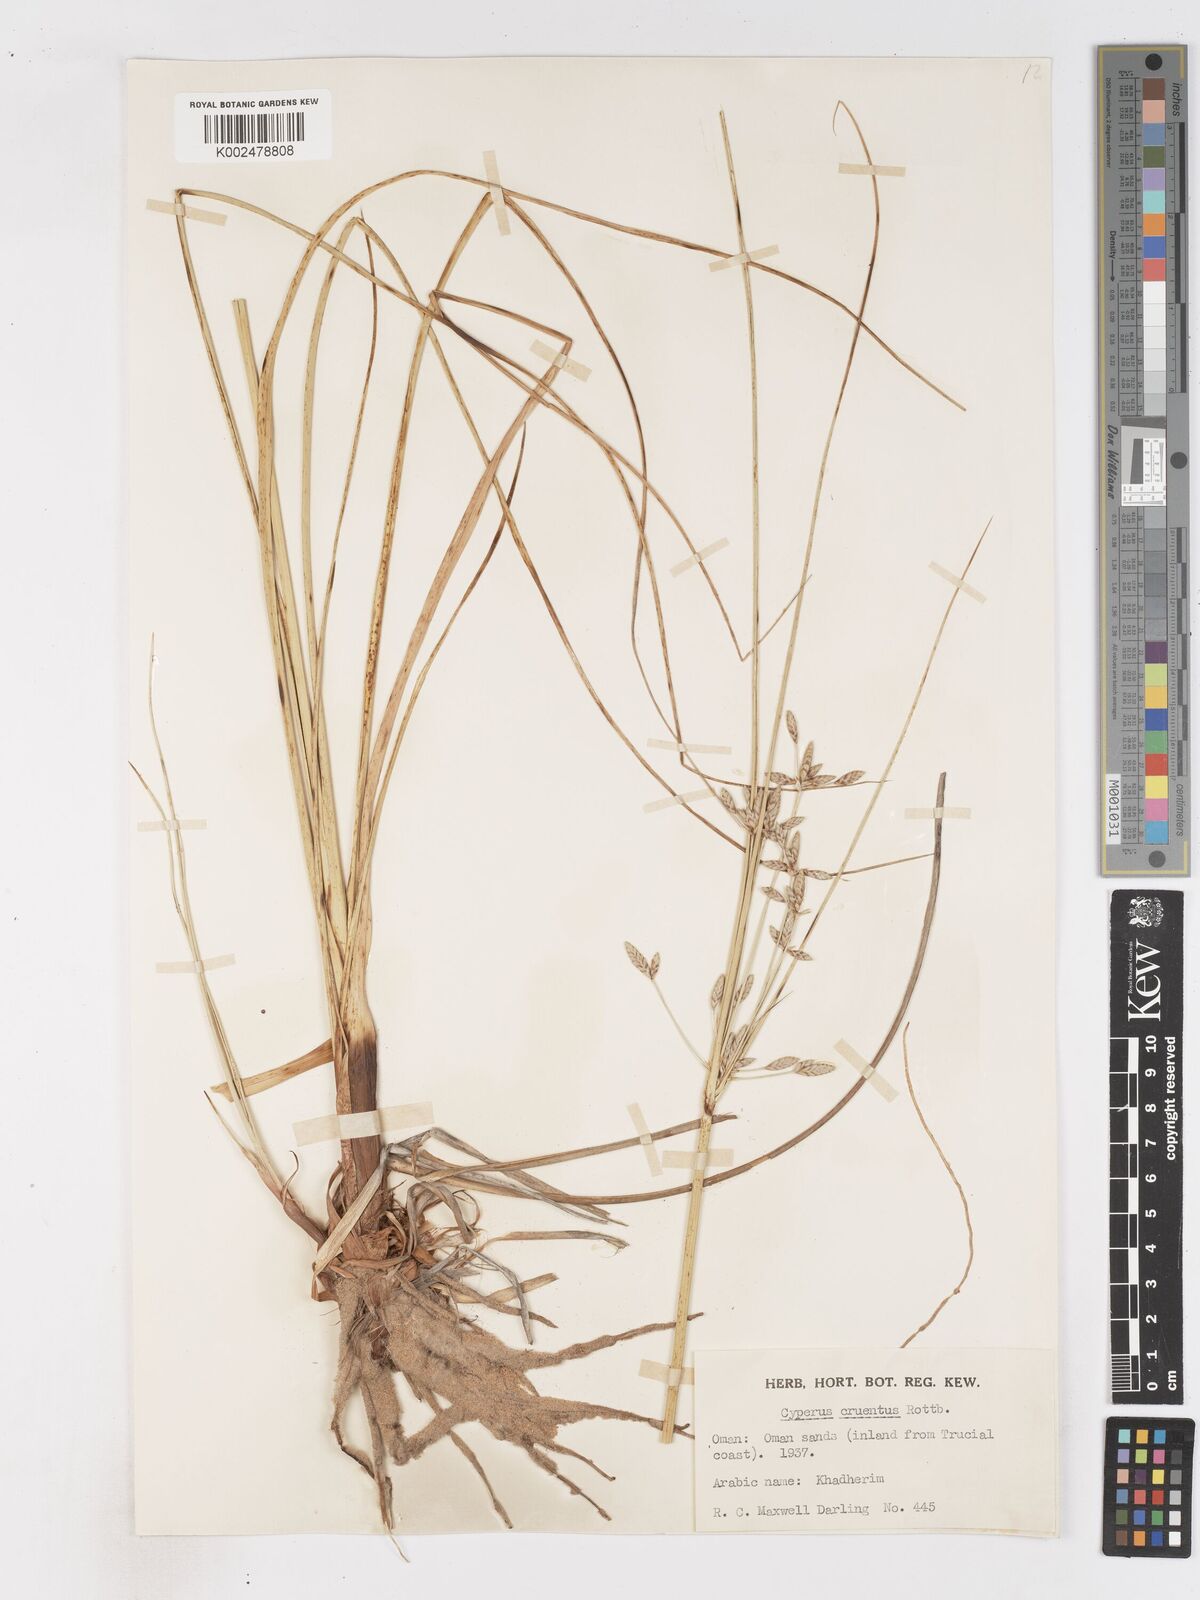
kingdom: Plantae
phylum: Tracheophyta
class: Liliopsida
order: Poales
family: Cyperaceae
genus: Cyperus
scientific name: Cyperus aucheri
